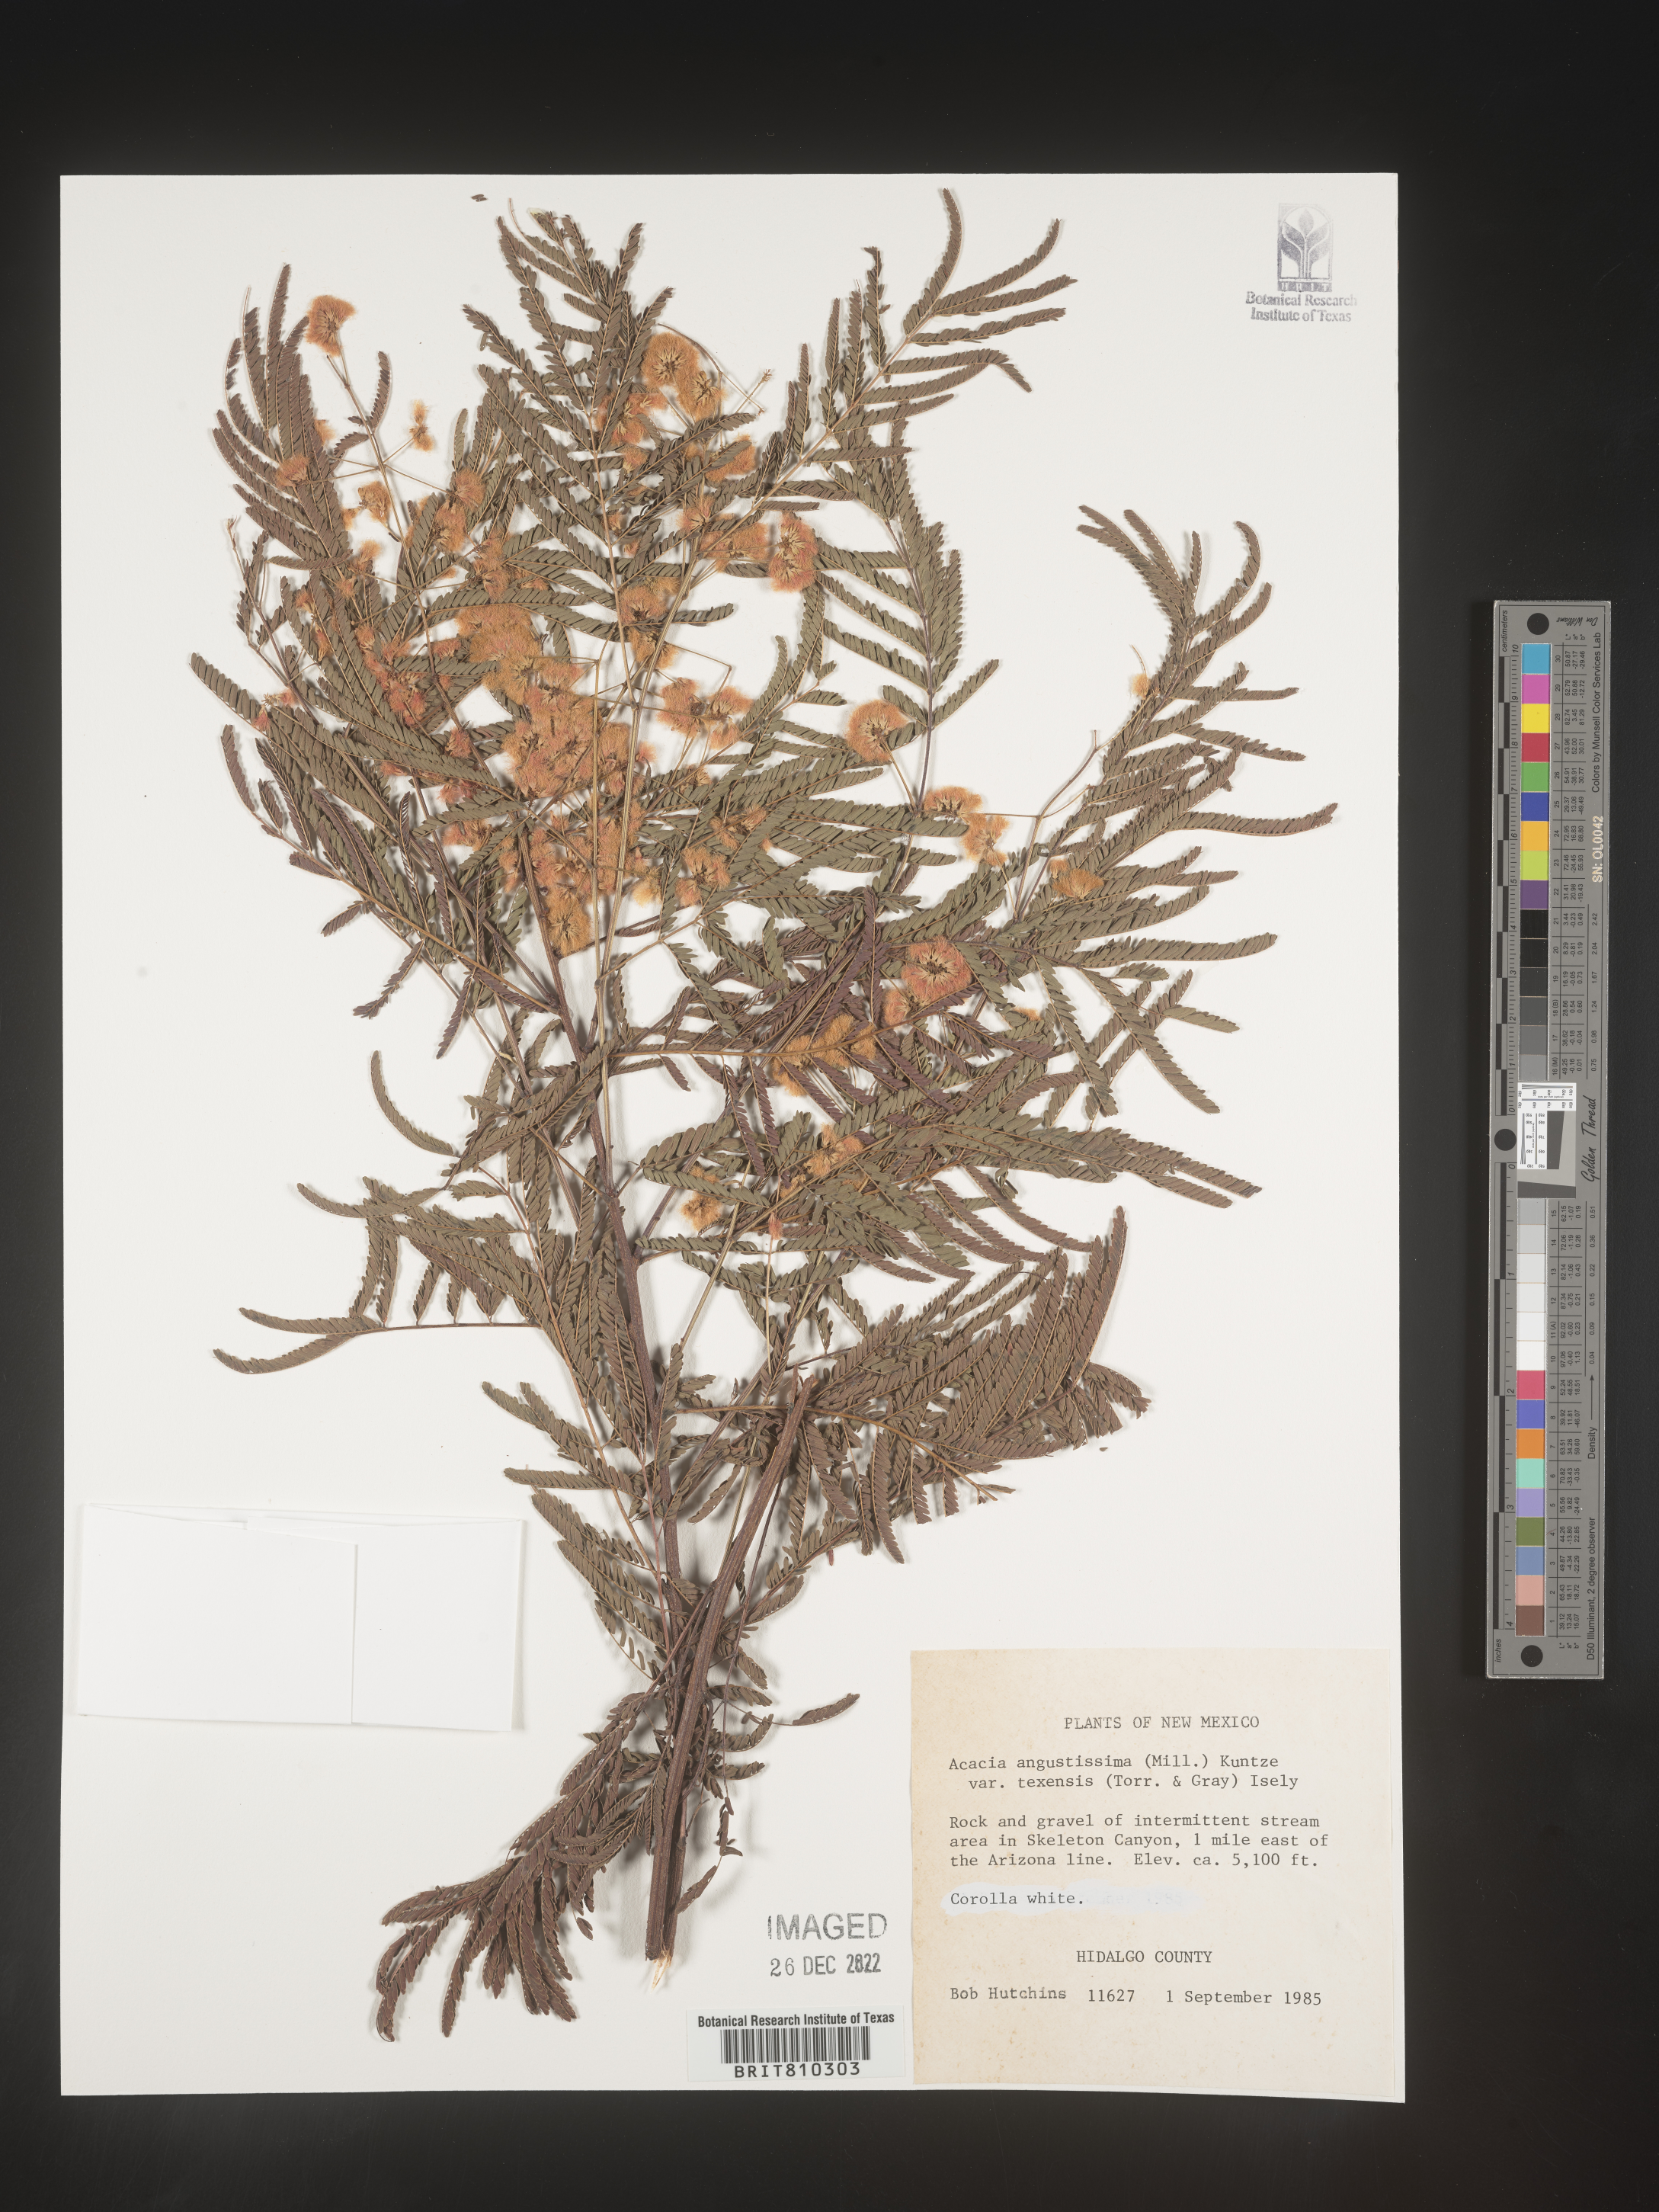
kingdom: Plantae
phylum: Tracheophyta
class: Magnoliopsida
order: Fabales
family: Fabaceae
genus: Acaciella
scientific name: Acaciella angustissima
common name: Prairie acacia
